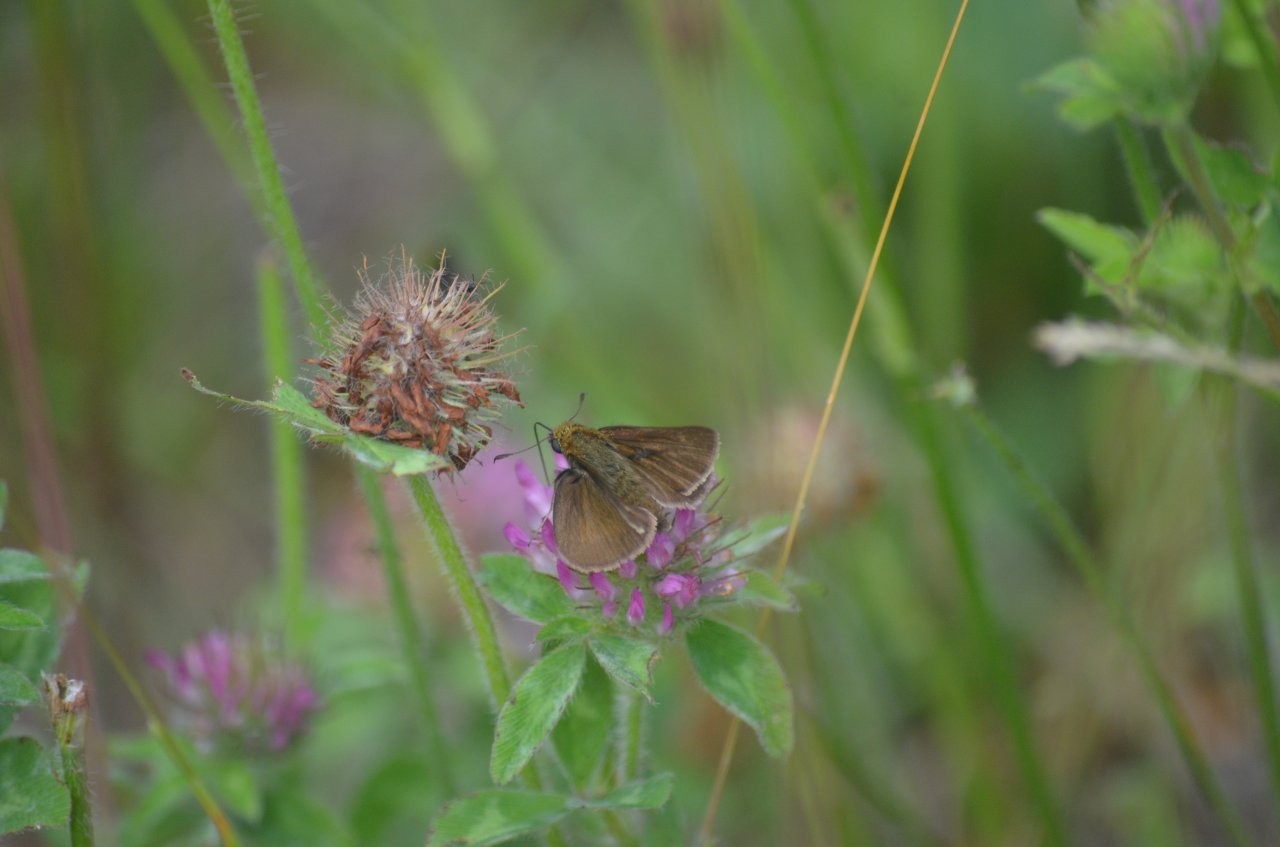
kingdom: Animalia
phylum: Arthropoda
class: Insecta
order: Lepidoptera
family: Hesperiidae
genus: Euphyes
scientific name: Euphyes vestris
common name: Dun Skipper
